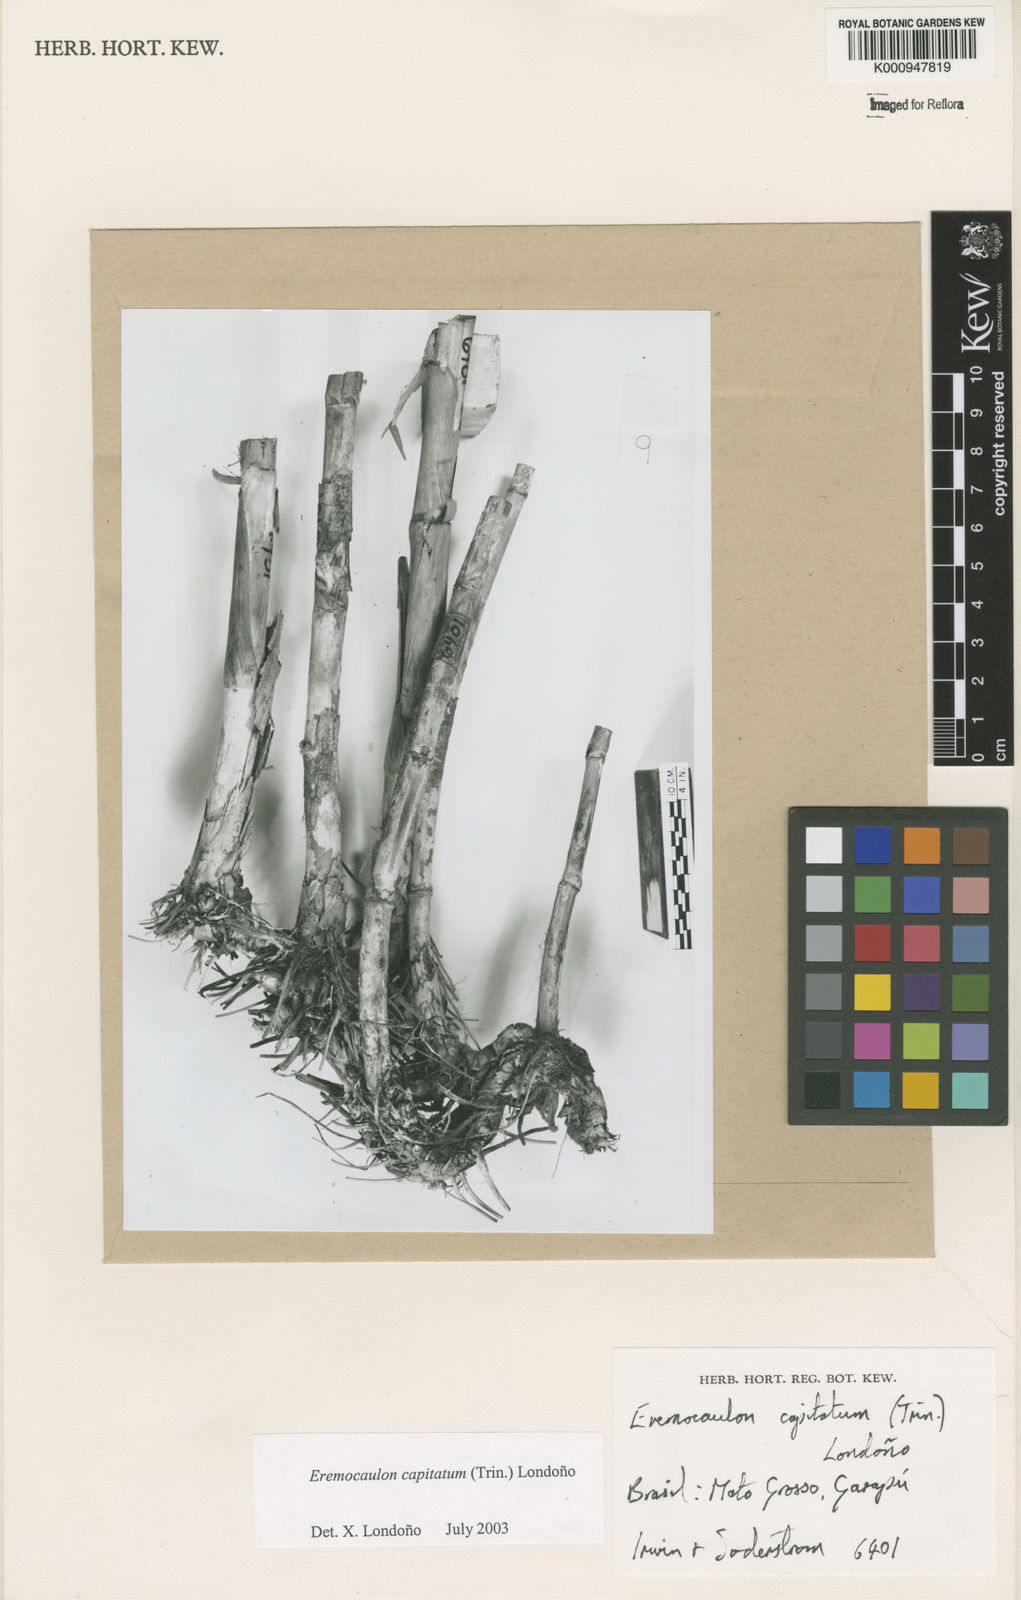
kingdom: Plantae
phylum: Tracheophyta
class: Liliopsida
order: Poales
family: Poaceae
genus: Eremocaulon
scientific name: Eremocaulon
